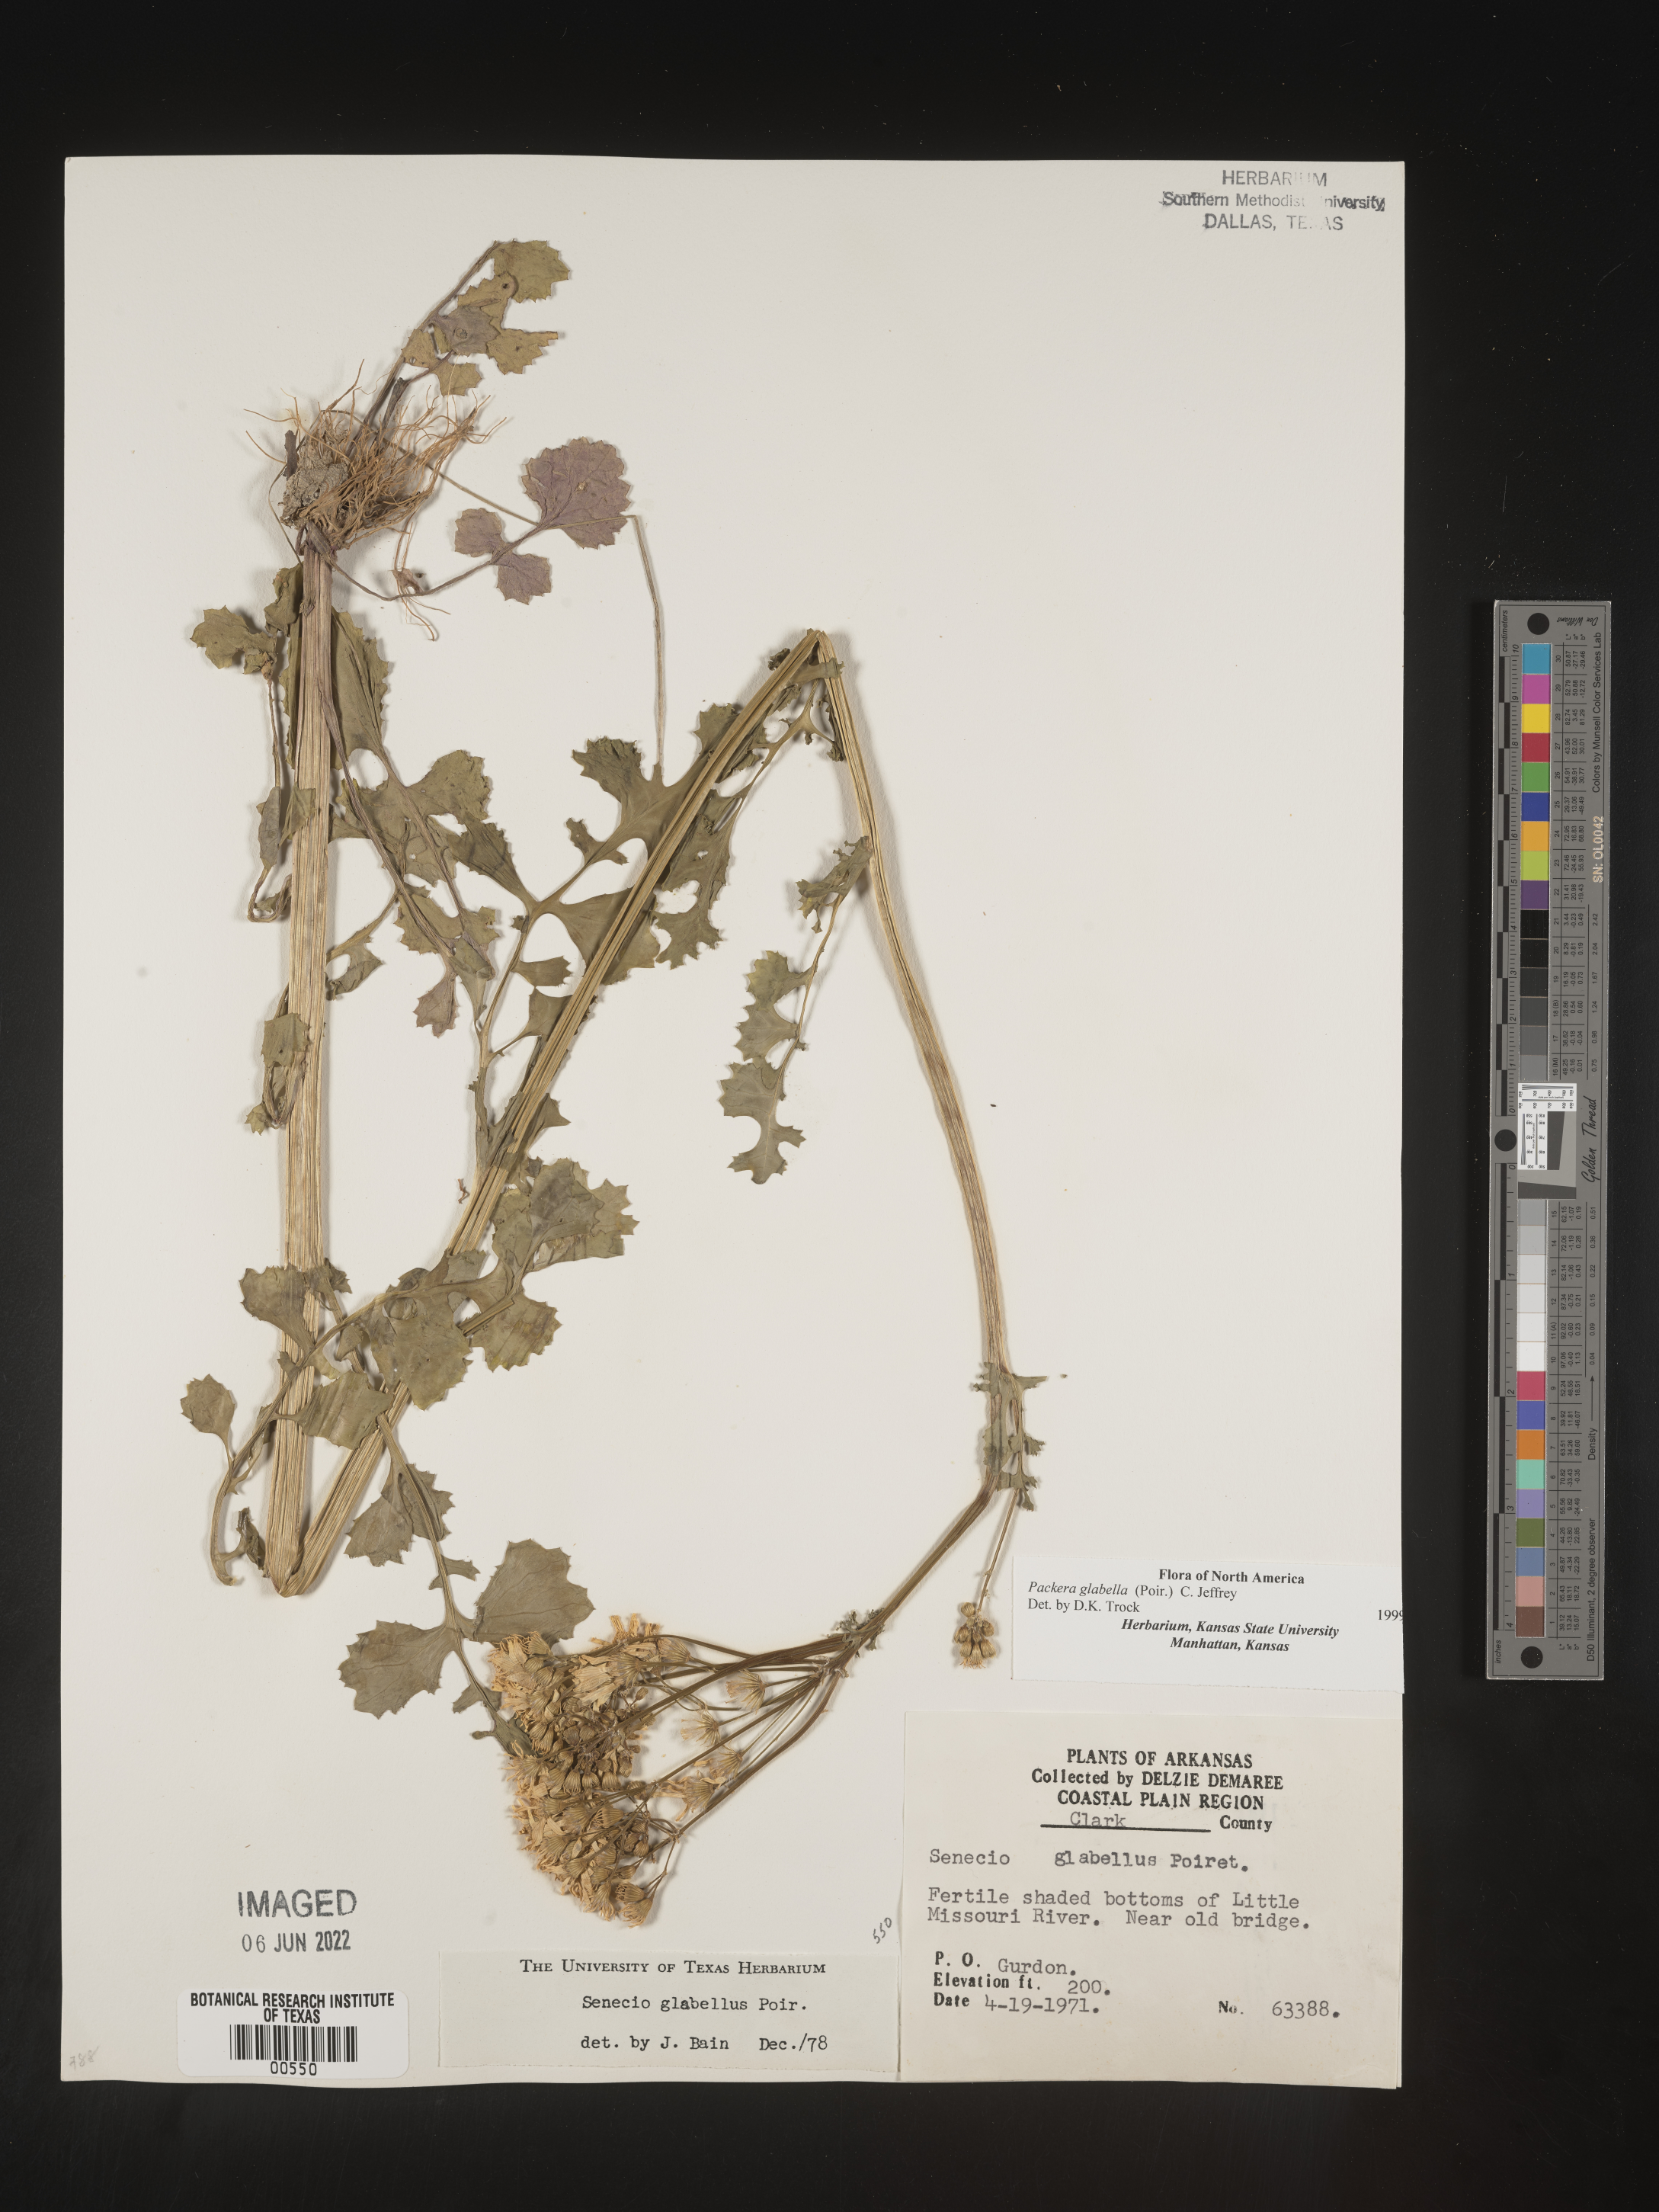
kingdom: Plantae
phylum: Tracheophyta
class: Magnoliopsida
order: Asterales
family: Asteraceae
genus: Packera
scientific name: Packera glabella
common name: Butterweed
